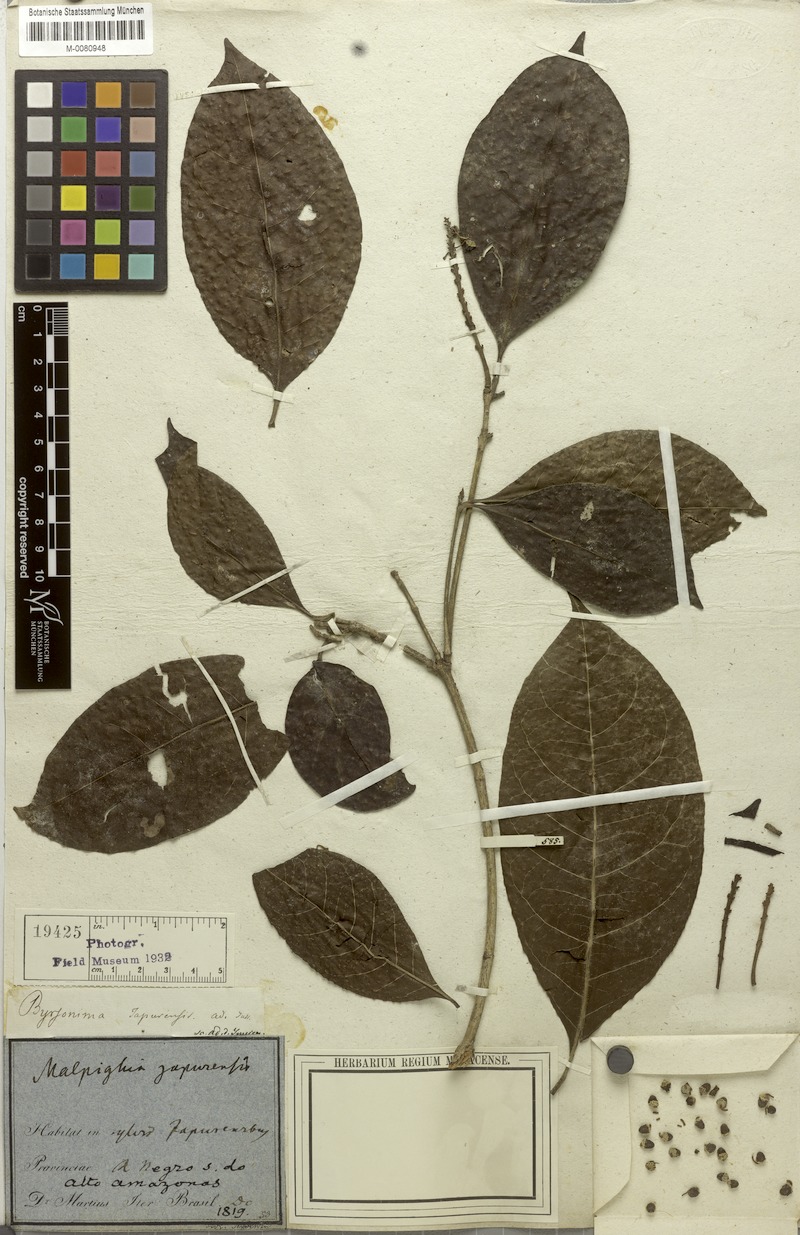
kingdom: Plantae
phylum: Tracheophyta
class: Magnoliopsida
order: Malpighiales
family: Malpighiaceae
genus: Byrsonima
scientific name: Byrsonima japurensis
